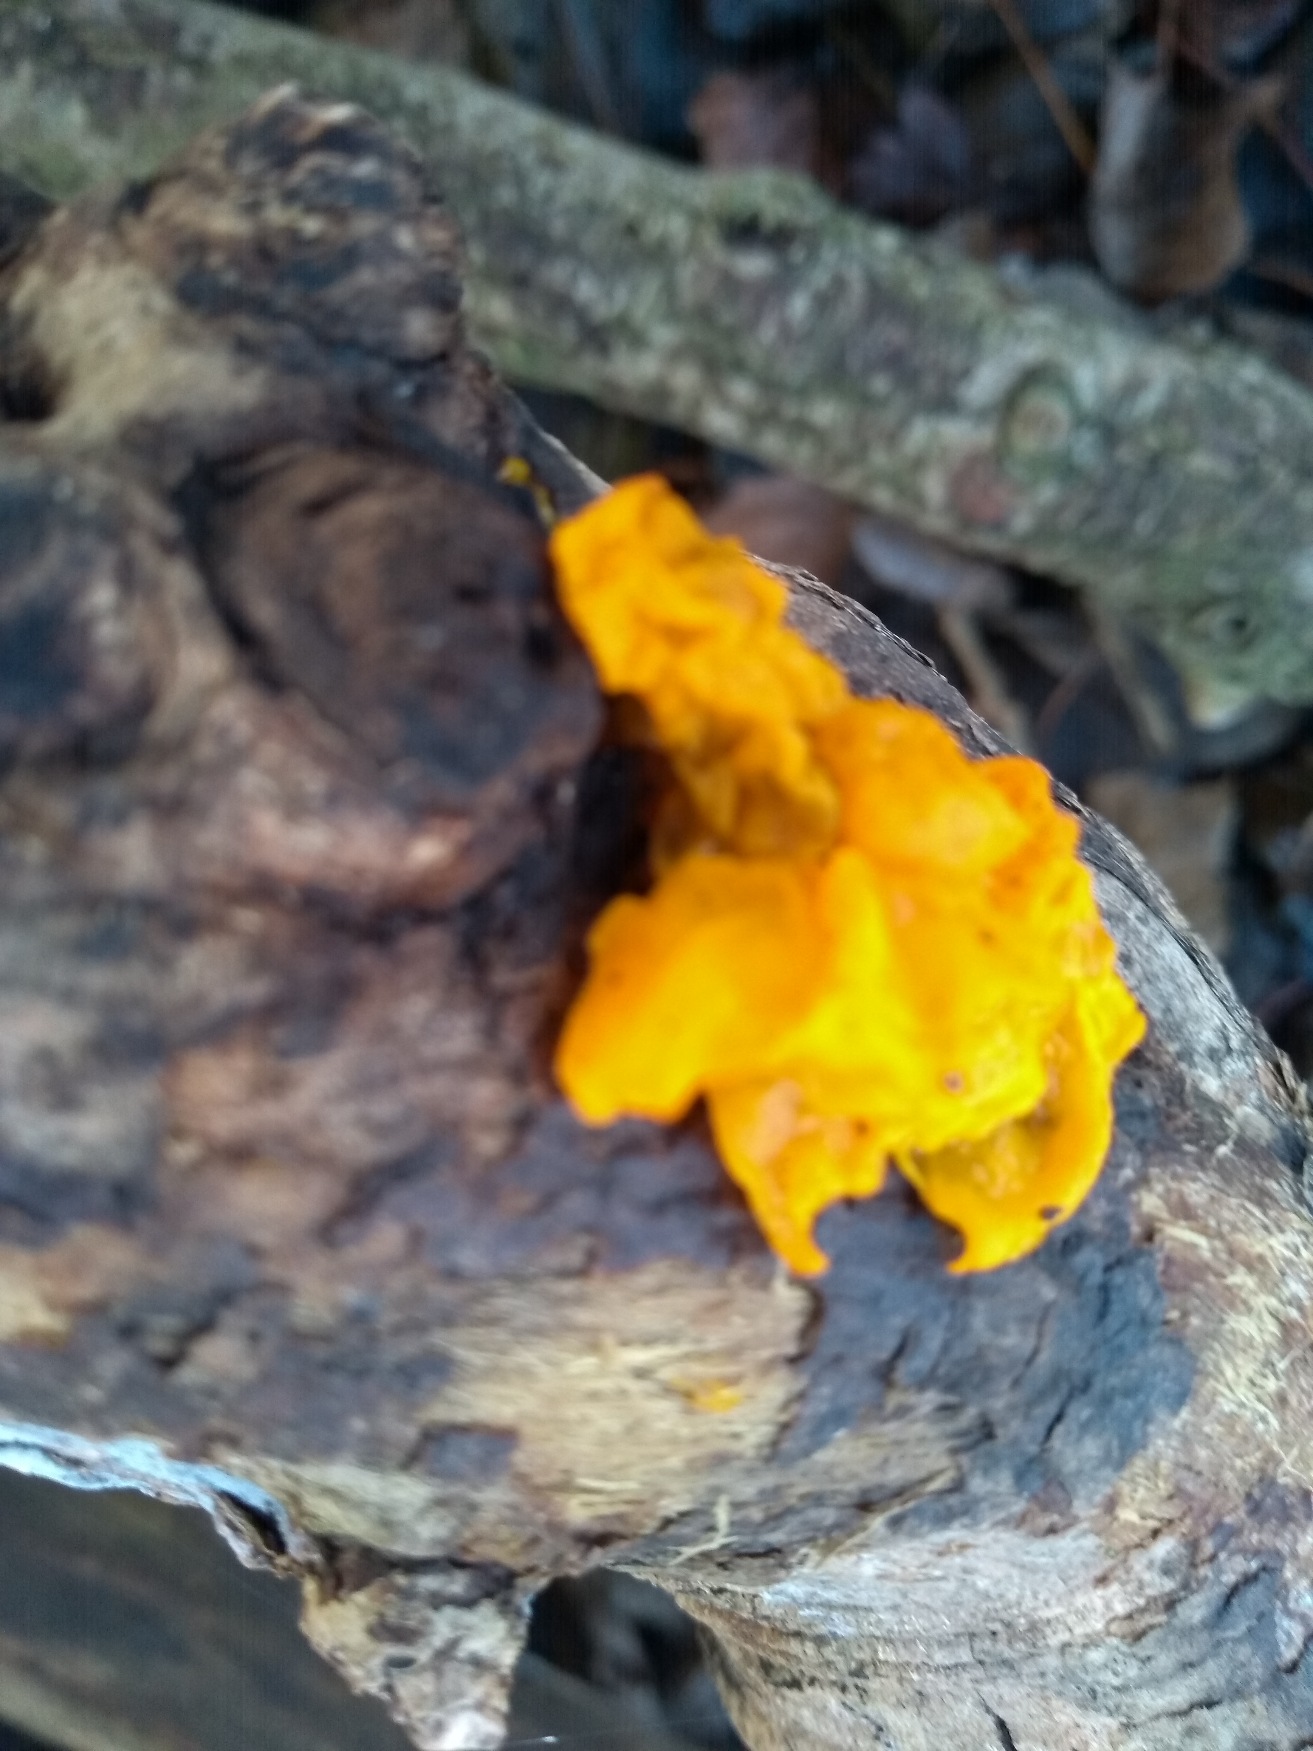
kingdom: Fungi
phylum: Basidiomycota
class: Tremellomycetes
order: Tremellales
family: Tremellaceae
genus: Tremella
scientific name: Tremella mesenterica
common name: Gul bævresvamp
